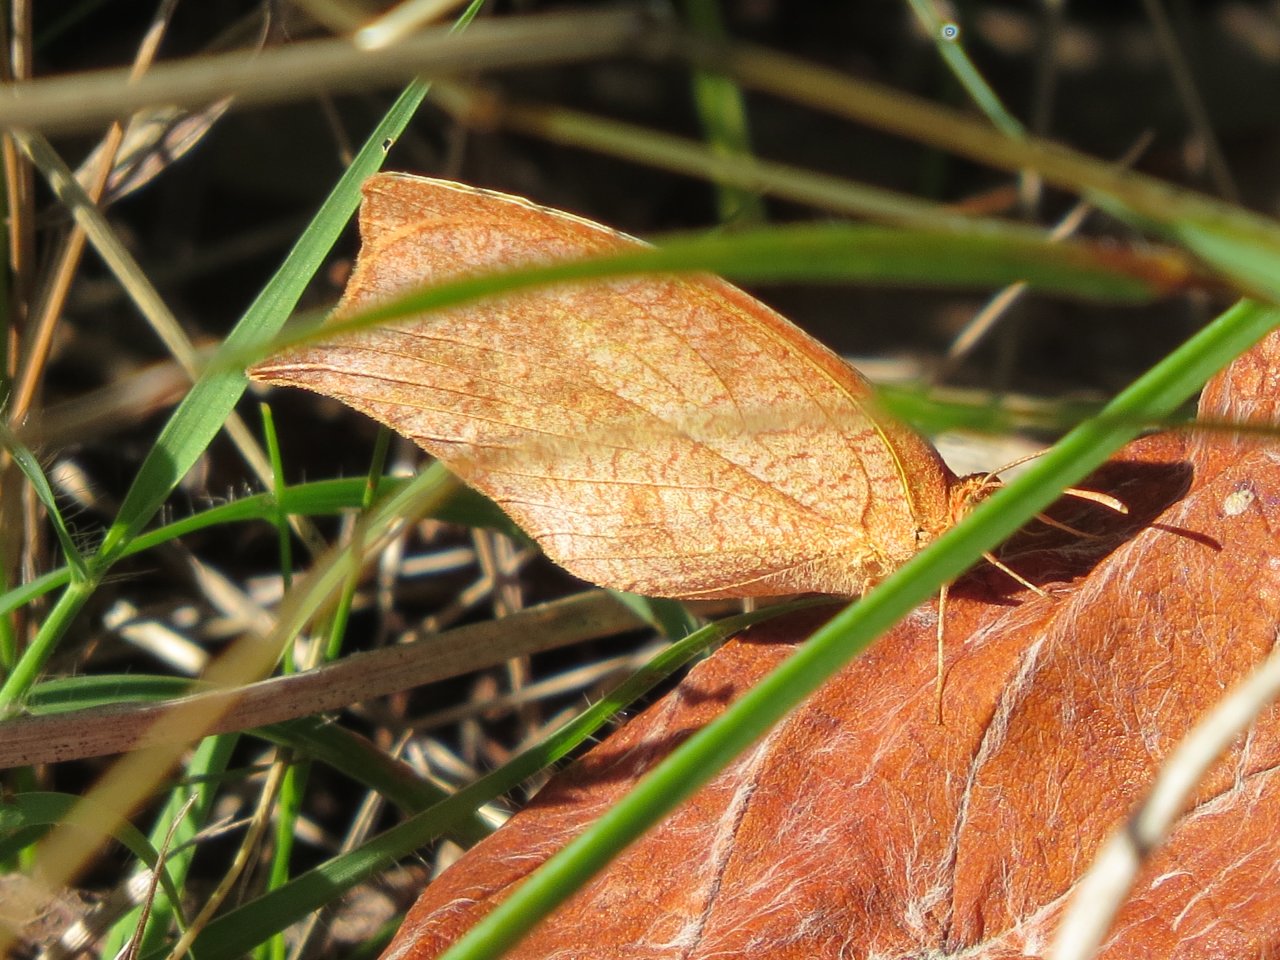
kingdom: Animalia
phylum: Arthropoda
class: Insecta
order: Lepidoptera
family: Pieridae
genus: Pyrisitia
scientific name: Pyrisitia proterpia
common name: Tailed Orange
